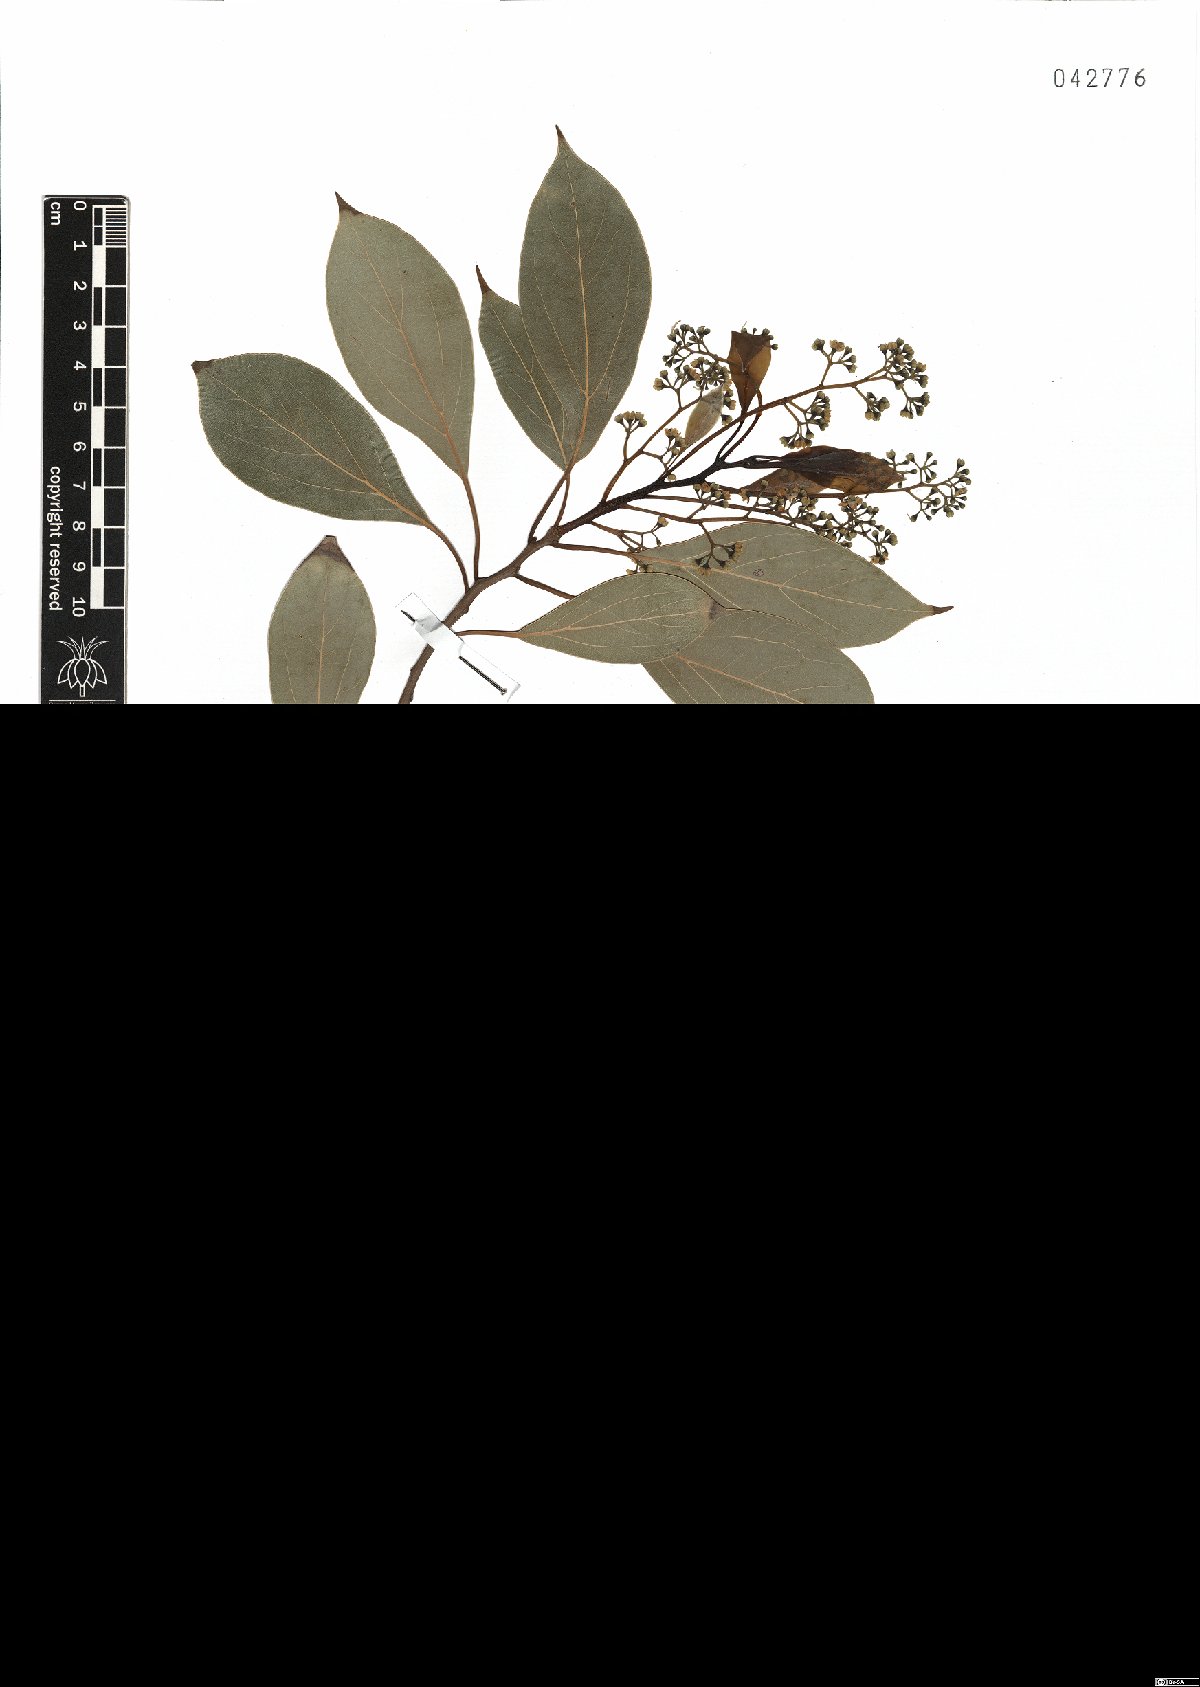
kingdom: Plantae
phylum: Tracheophyta
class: Magnoliopsida
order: Laurales
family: Lauraceae
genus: Cinnamomum
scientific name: Cinnamomum camphora
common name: Camphortree
